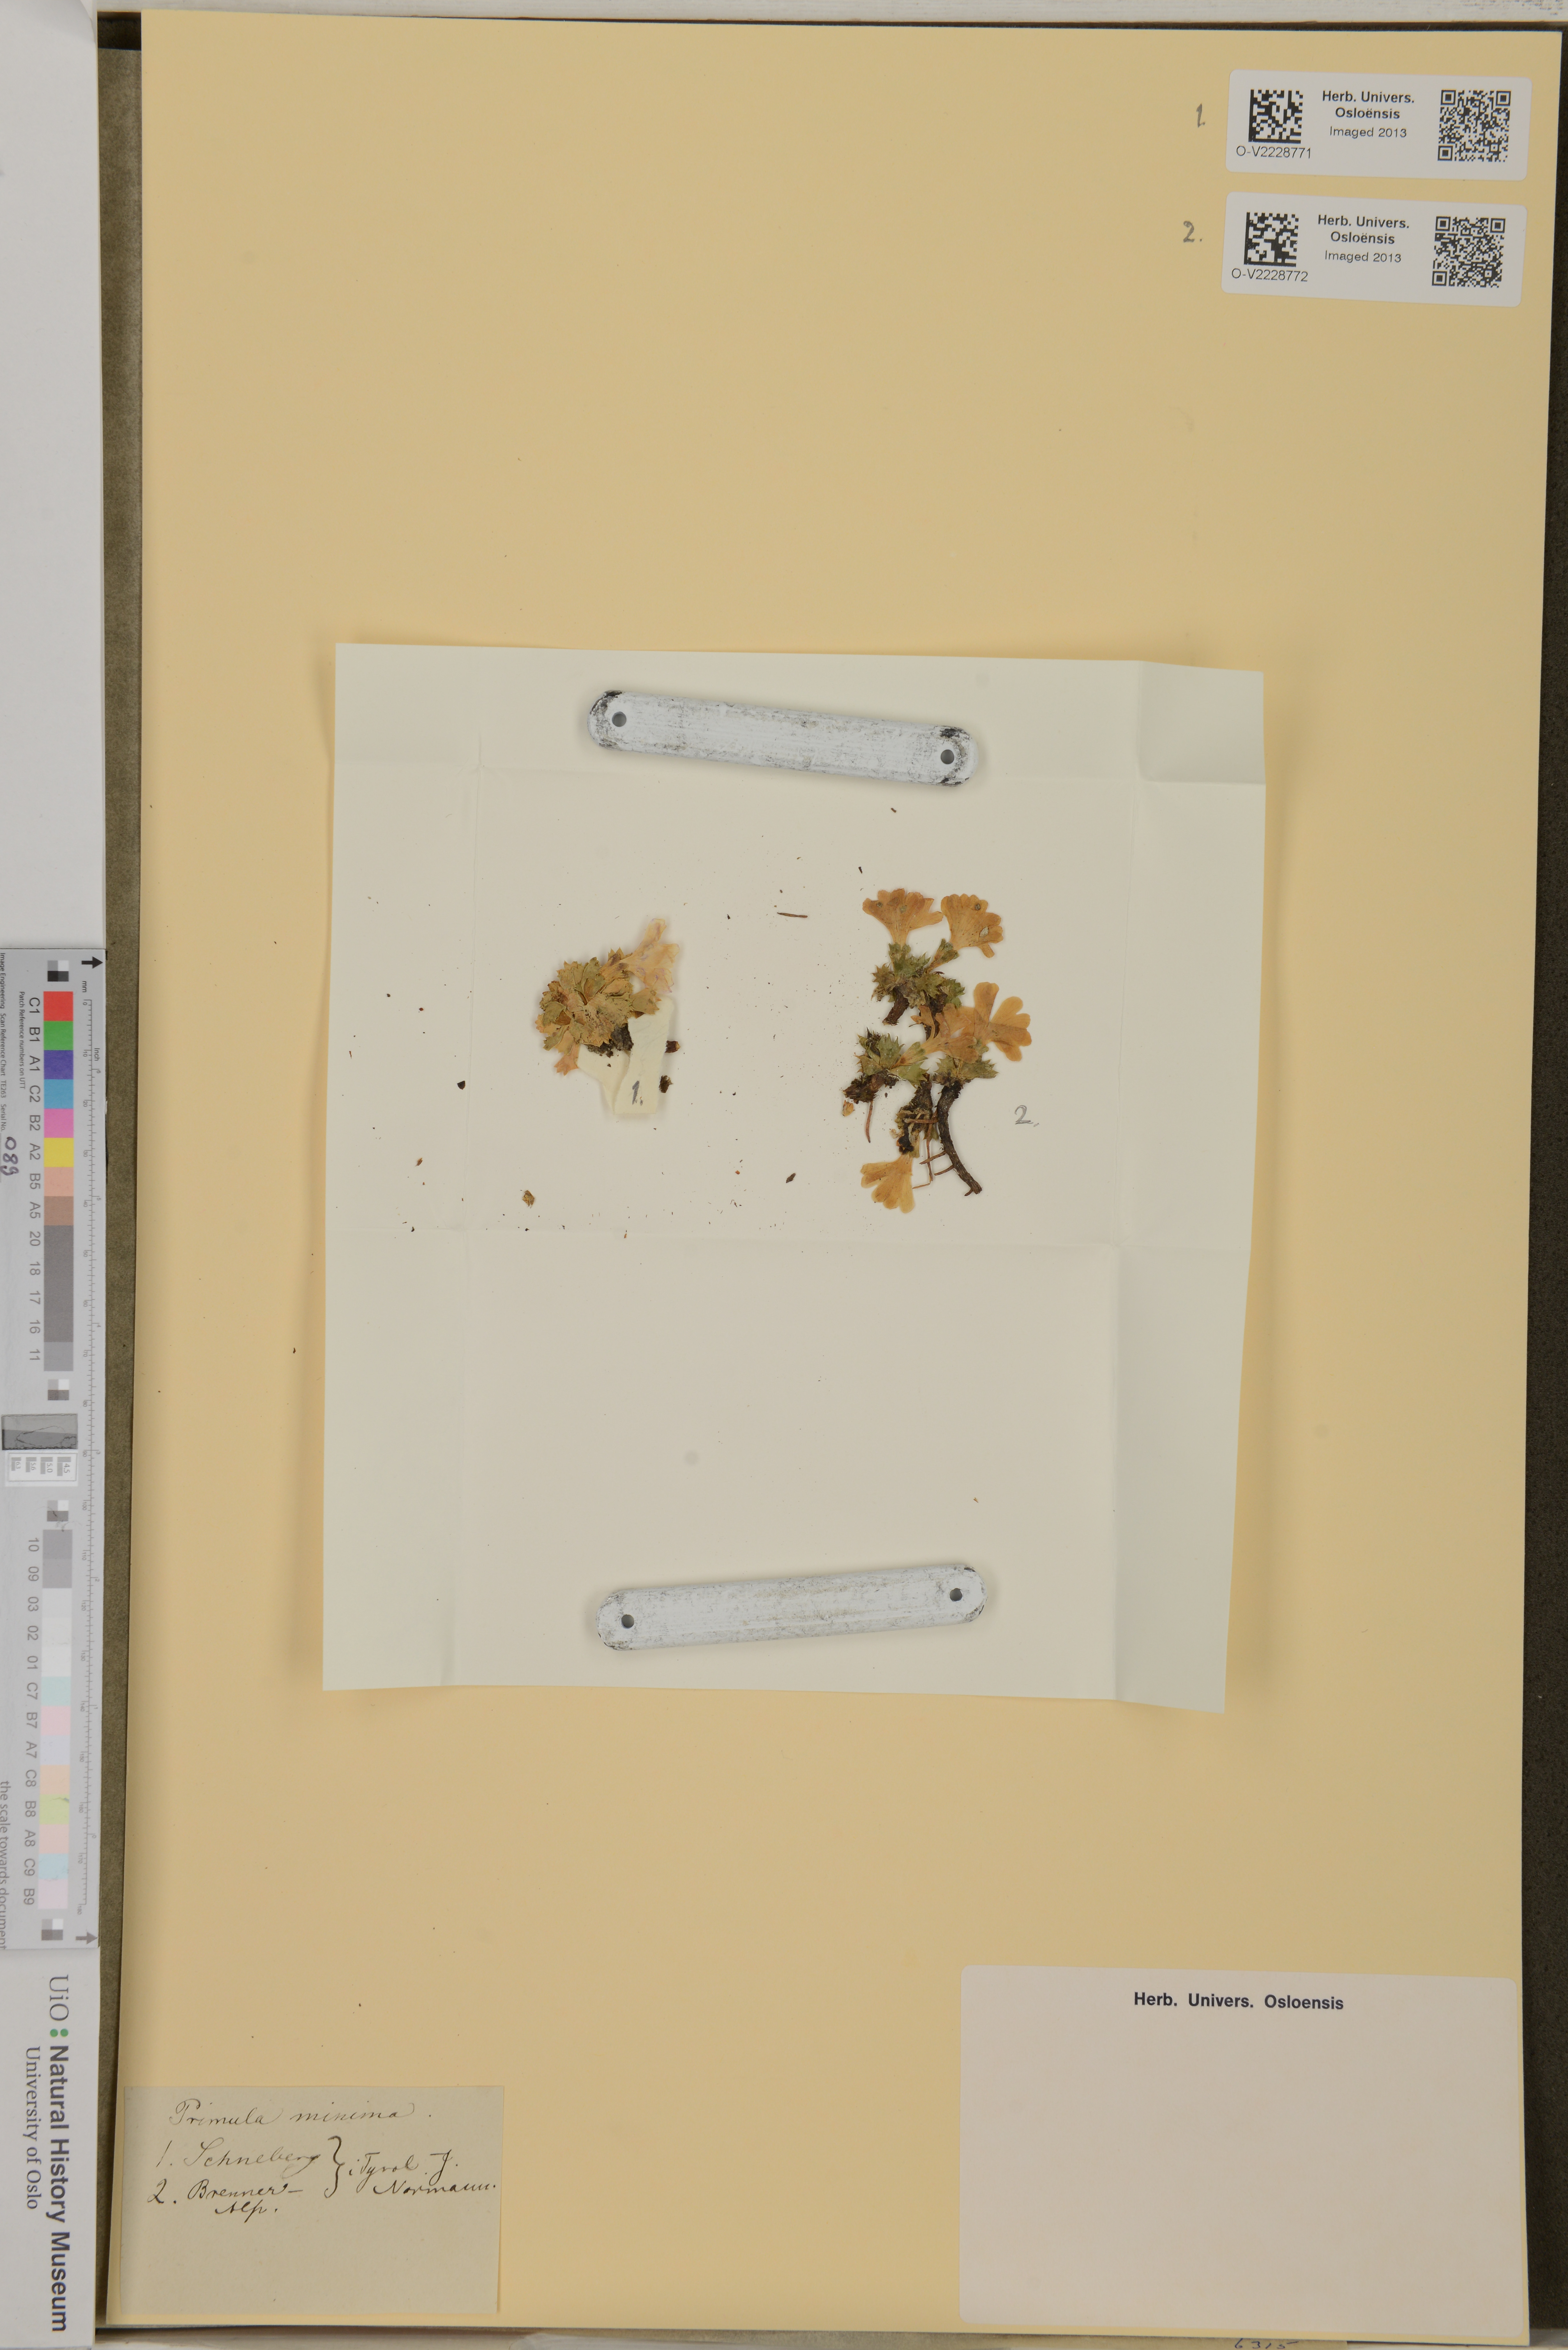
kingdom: Plantae
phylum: Tracheophyta
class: Magnoliopsida
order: Ericales
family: Primulaceae
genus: Primula
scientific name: Primula minima
